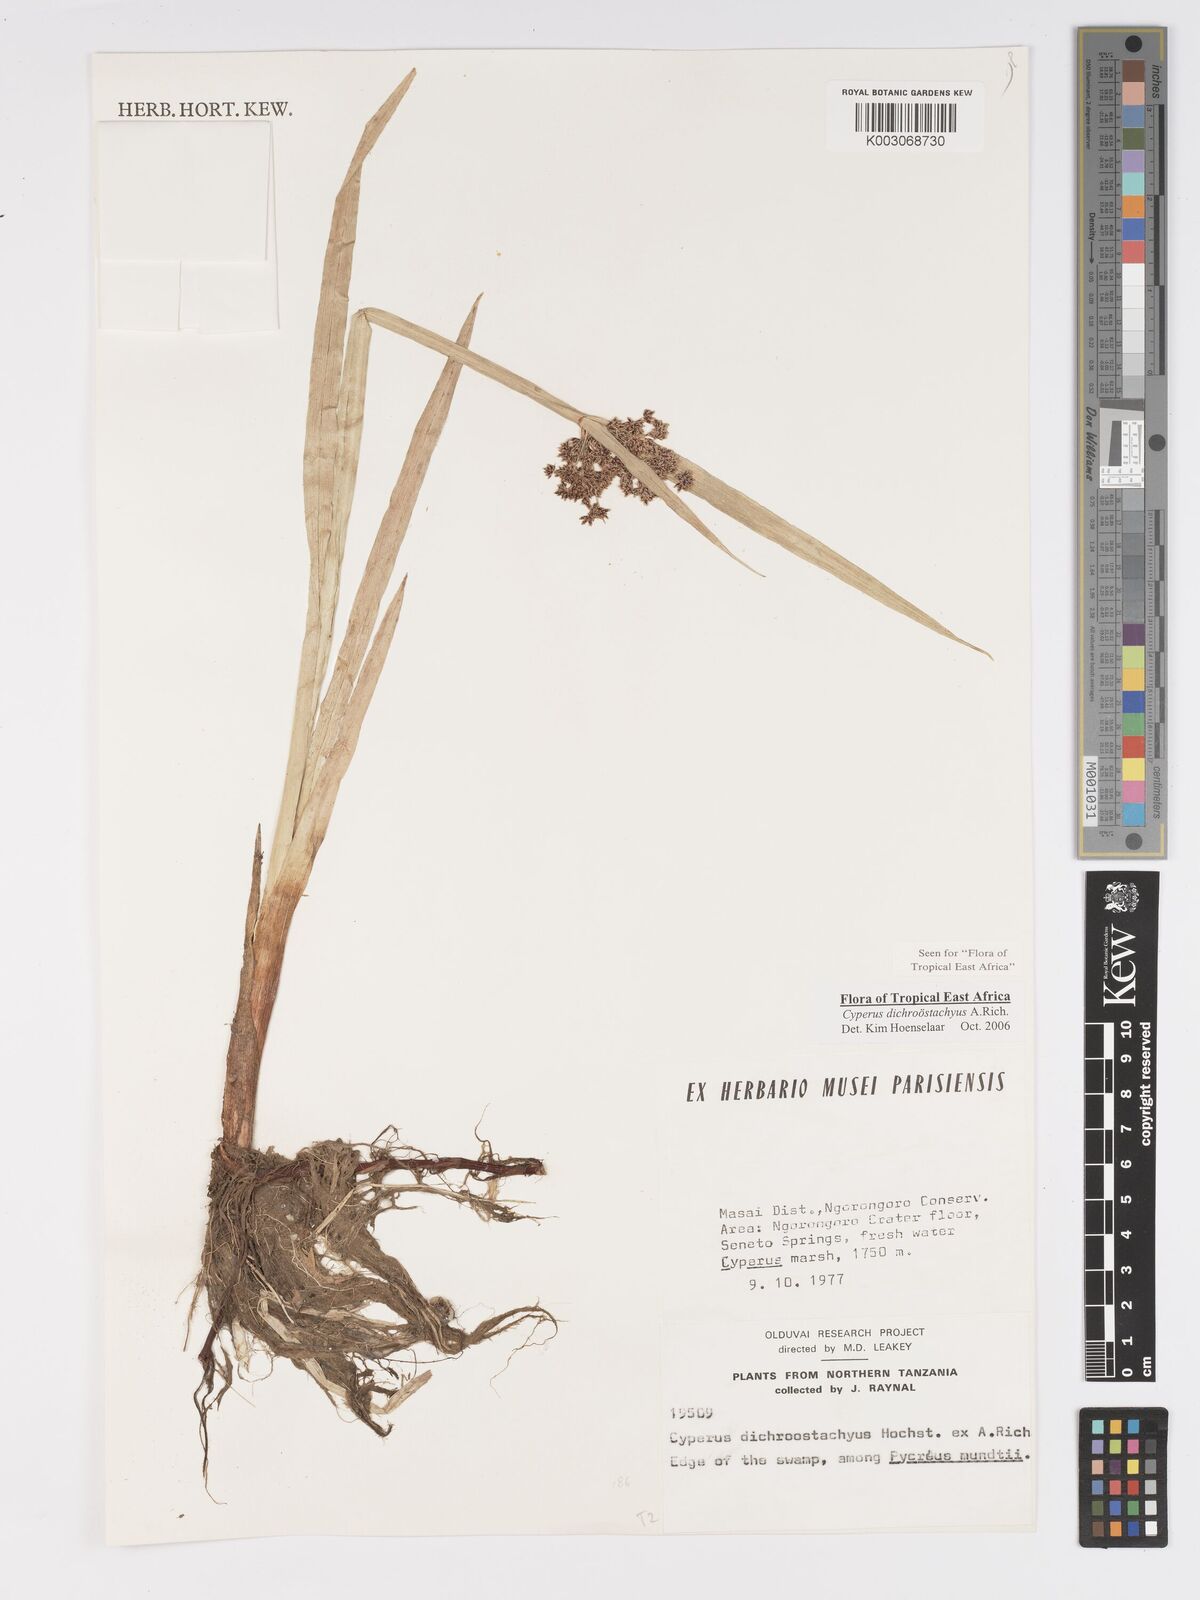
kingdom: Plantae
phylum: Tracheophyta
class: Liliopsida
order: Poales
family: Cyperaceae
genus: Cyperus
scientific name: Cyperus dichrostachyus
